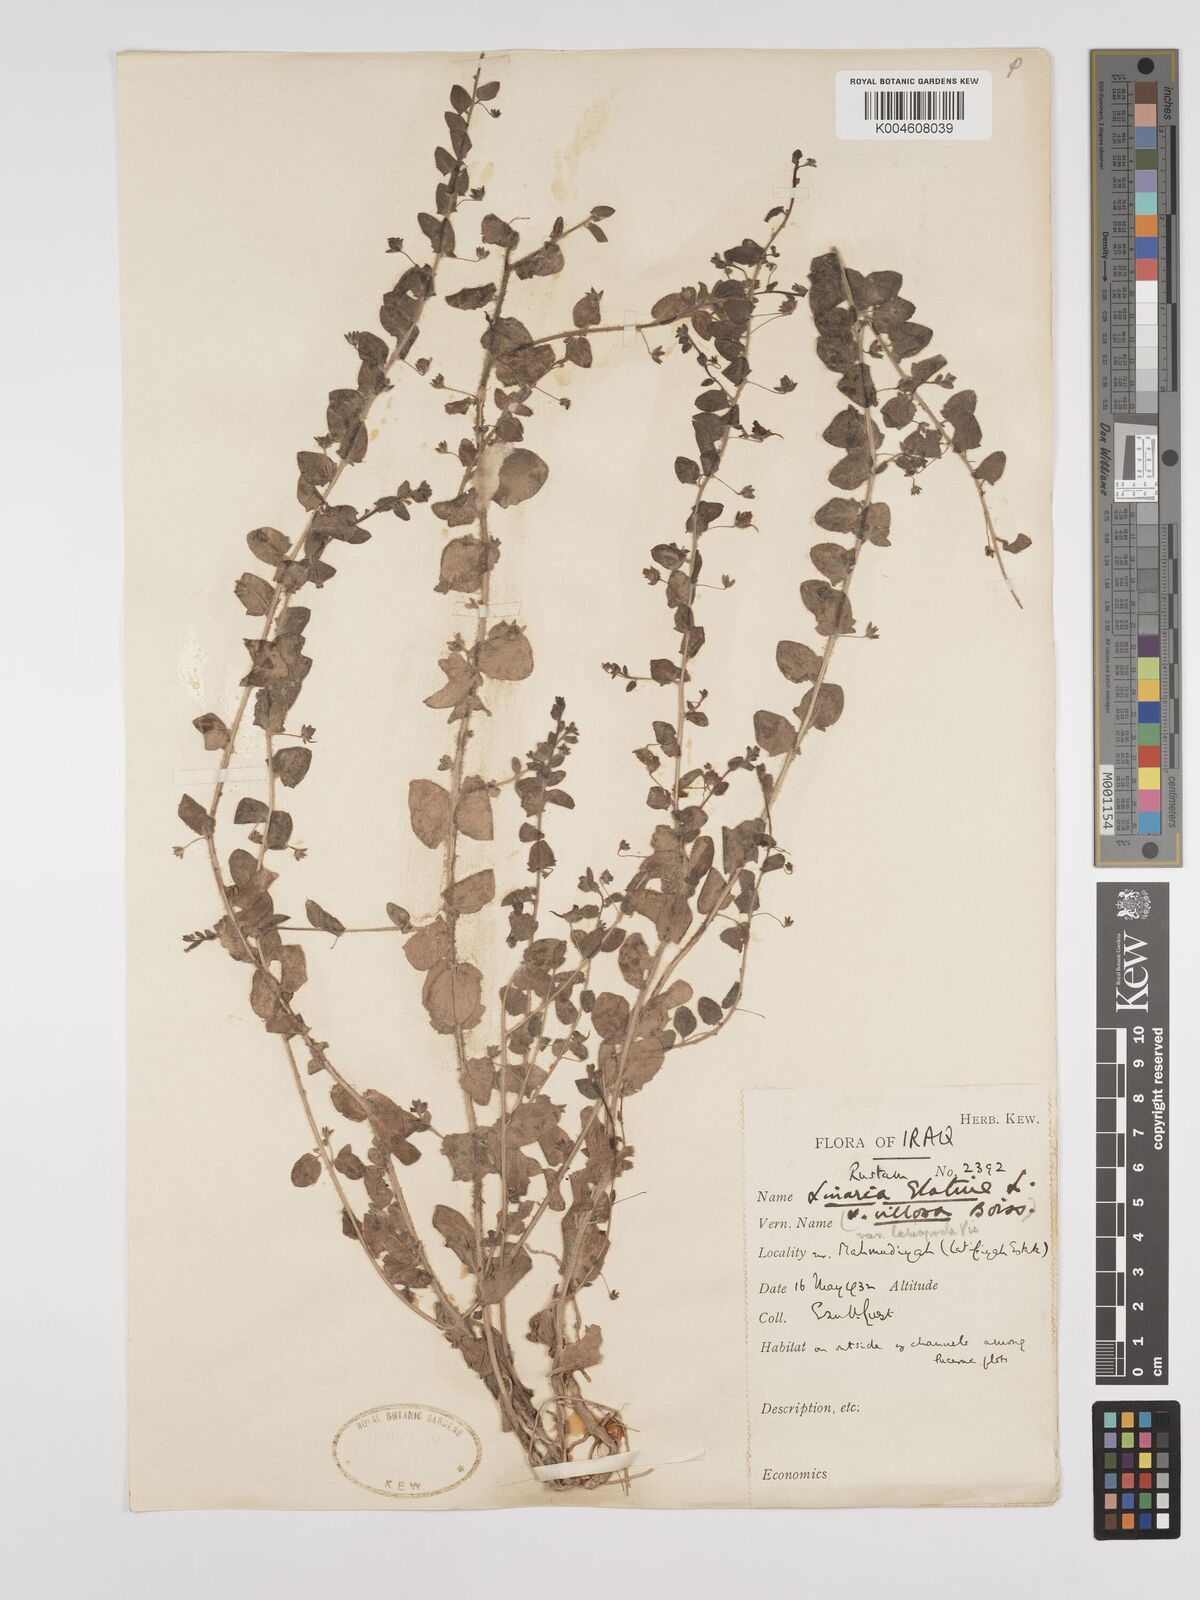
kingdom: Plantae
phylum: Tracheophyta
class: Magnoliopsida
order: Lamiales
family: Plantaginaceae
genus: Kickxia
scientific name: Kickxia elatine
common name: Sharp-leaved fluellen
